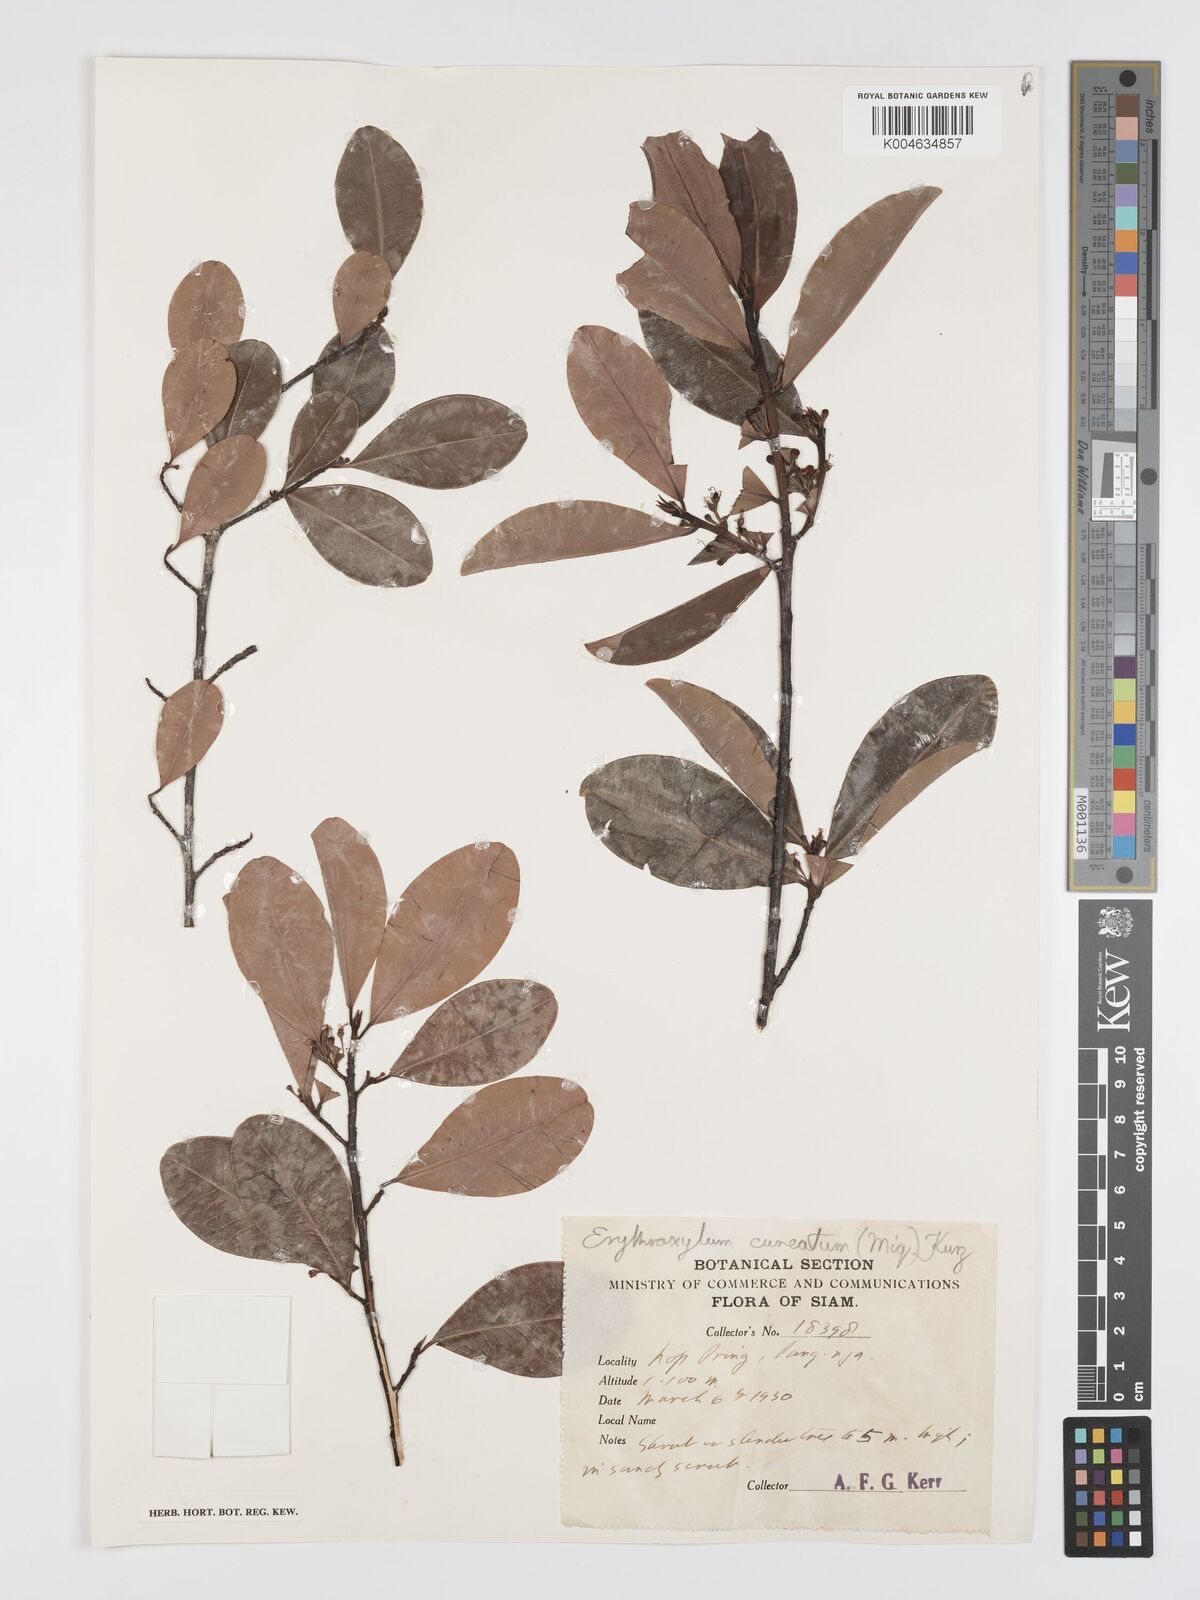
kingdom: Plantae
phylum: Tracheophyta
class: Magnoliopsida
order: Malpighiales
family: Erythroxylaceae
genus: Erythroxylum
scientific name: Erythroxylum cuneatum
